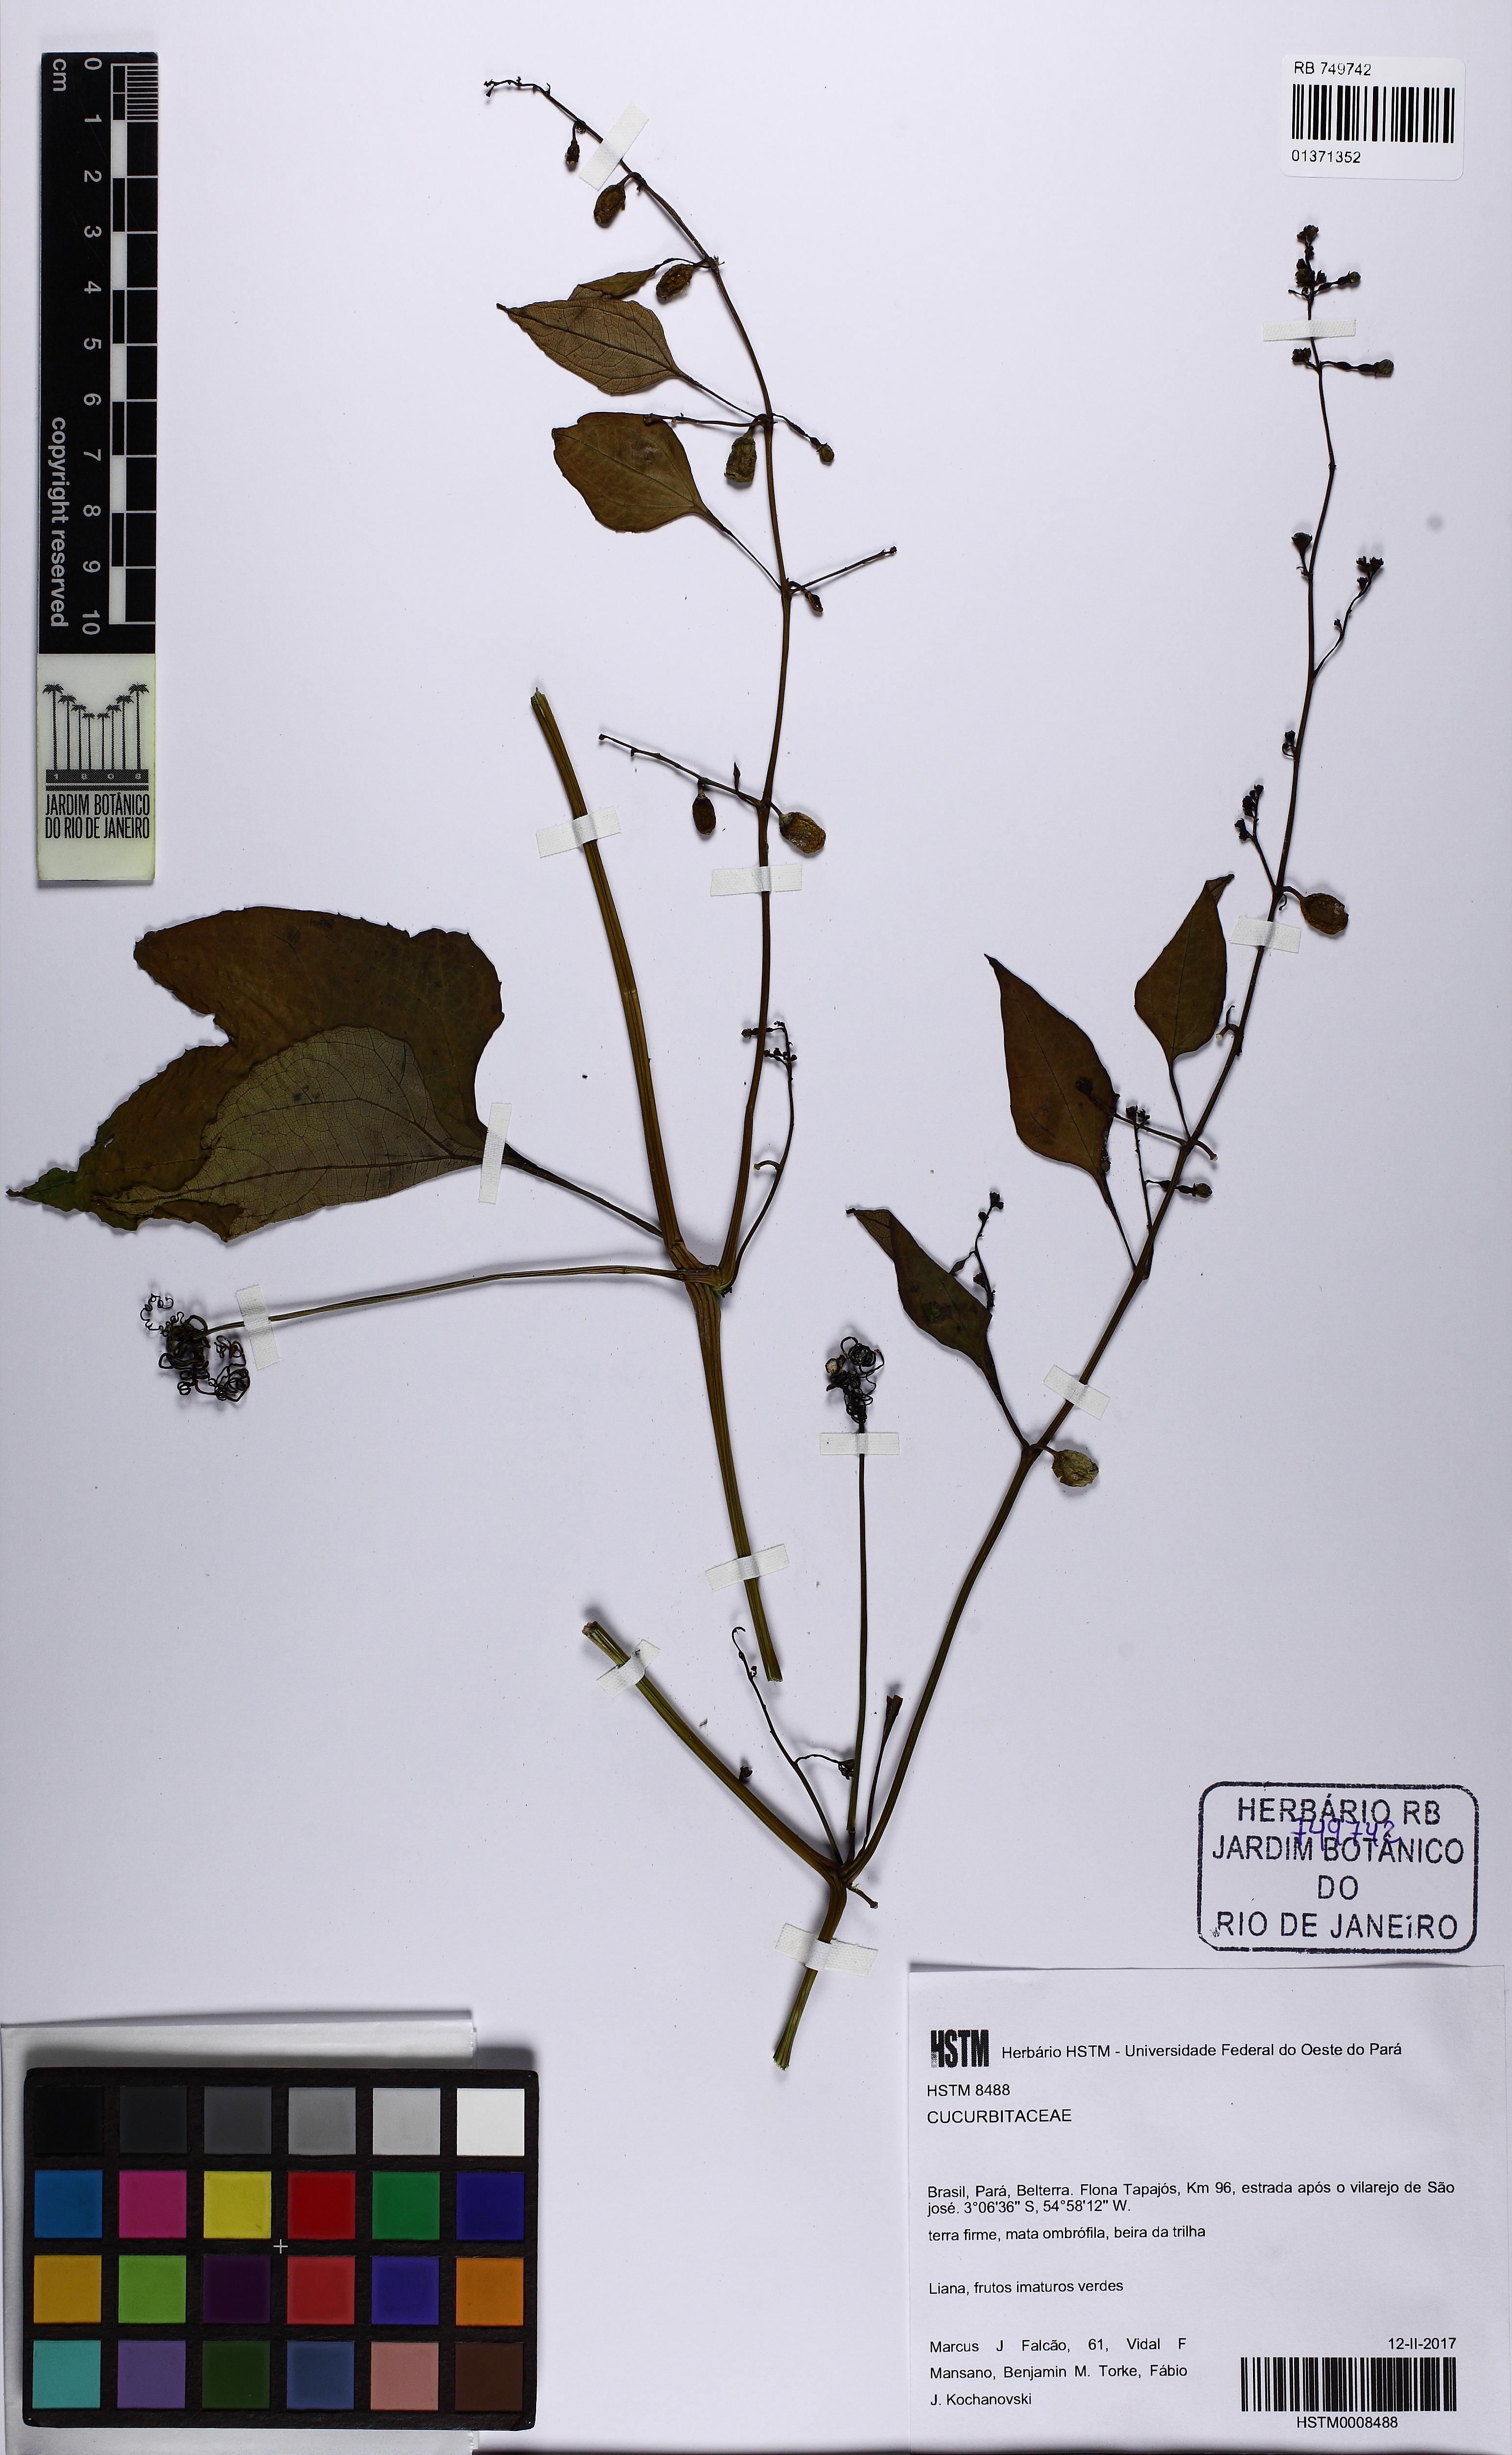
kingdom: Plantae
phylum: Tracheophyta
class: Magnoliopsida
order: Cucurbitales
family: Cucurbitaceae
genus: Cayaponia
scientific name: Cayaponia
